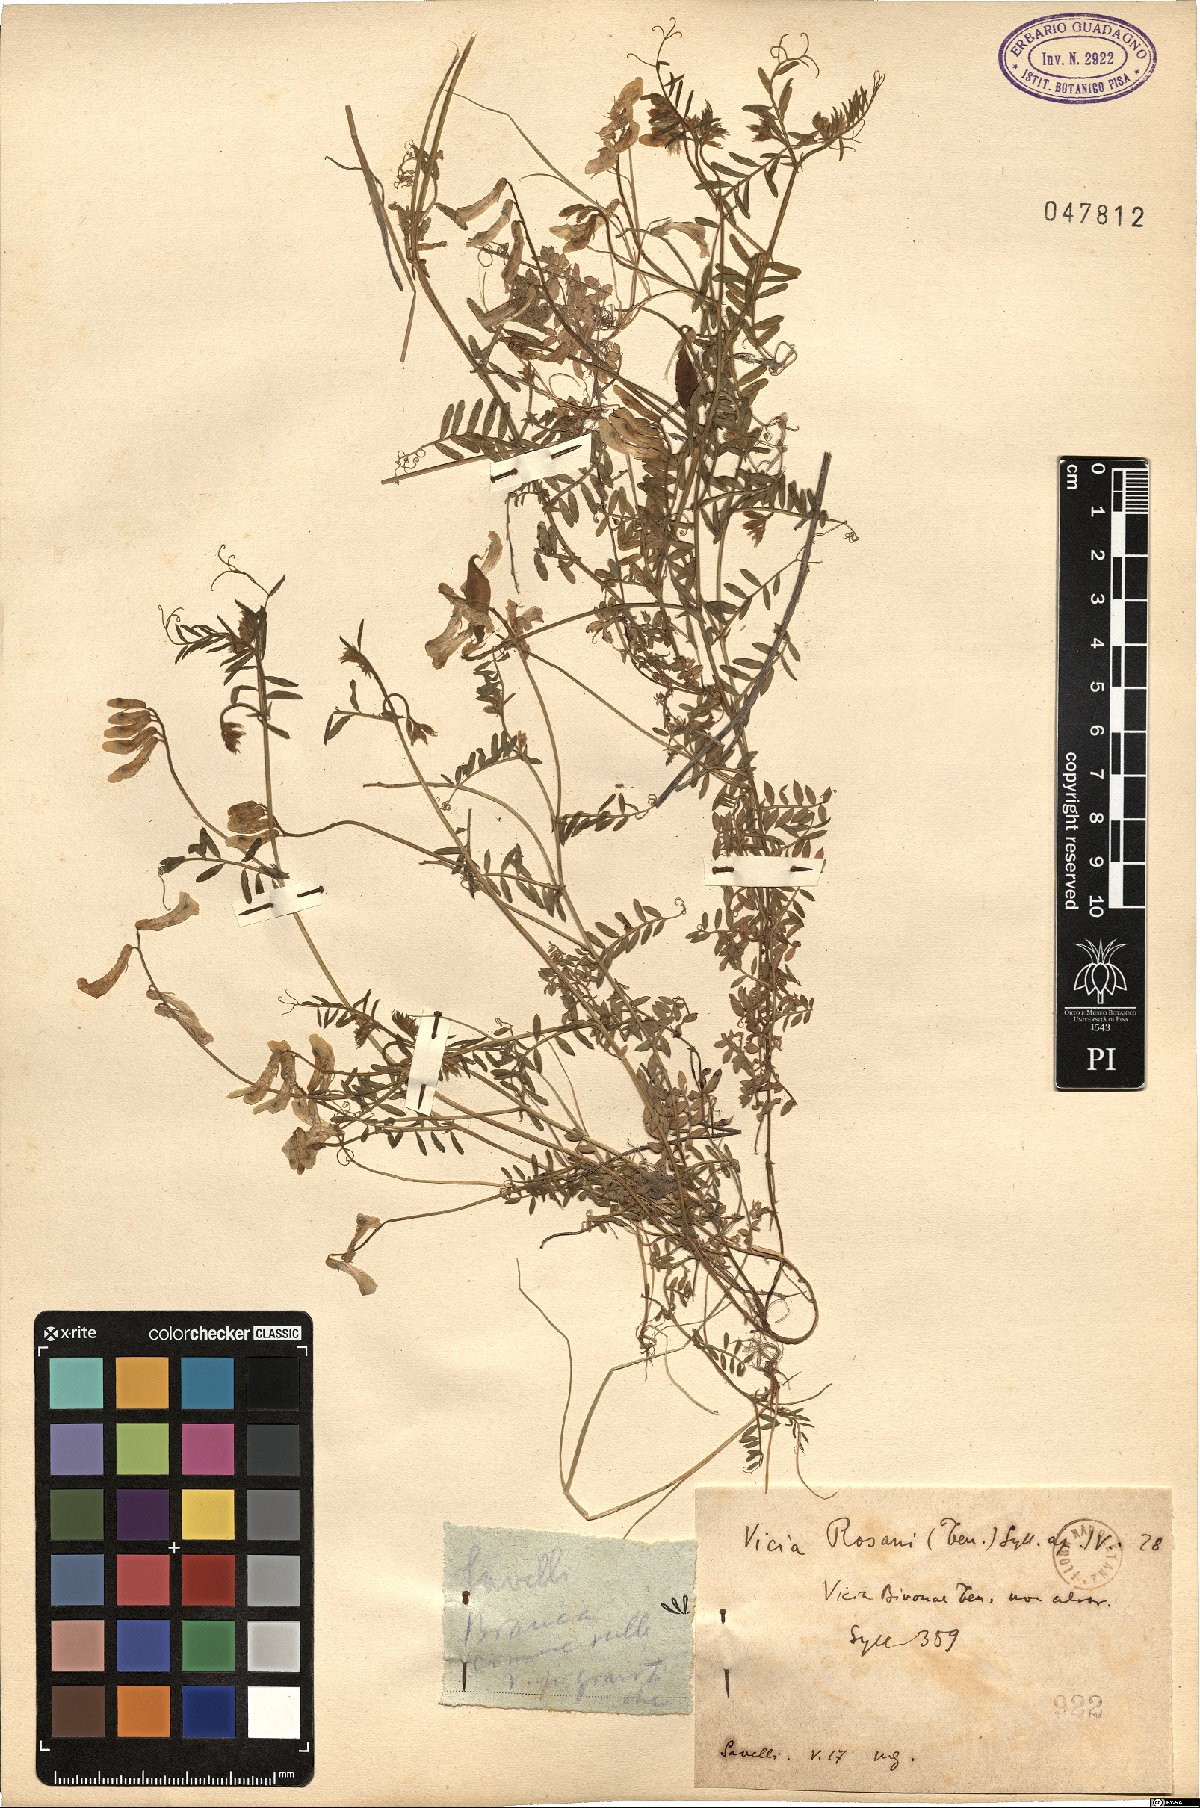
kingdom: Plantae
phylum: Tracheophyta
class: Magnoliopsida
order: Fabales
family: Fabaceae
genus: Vicia
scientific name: Vicia rosani
